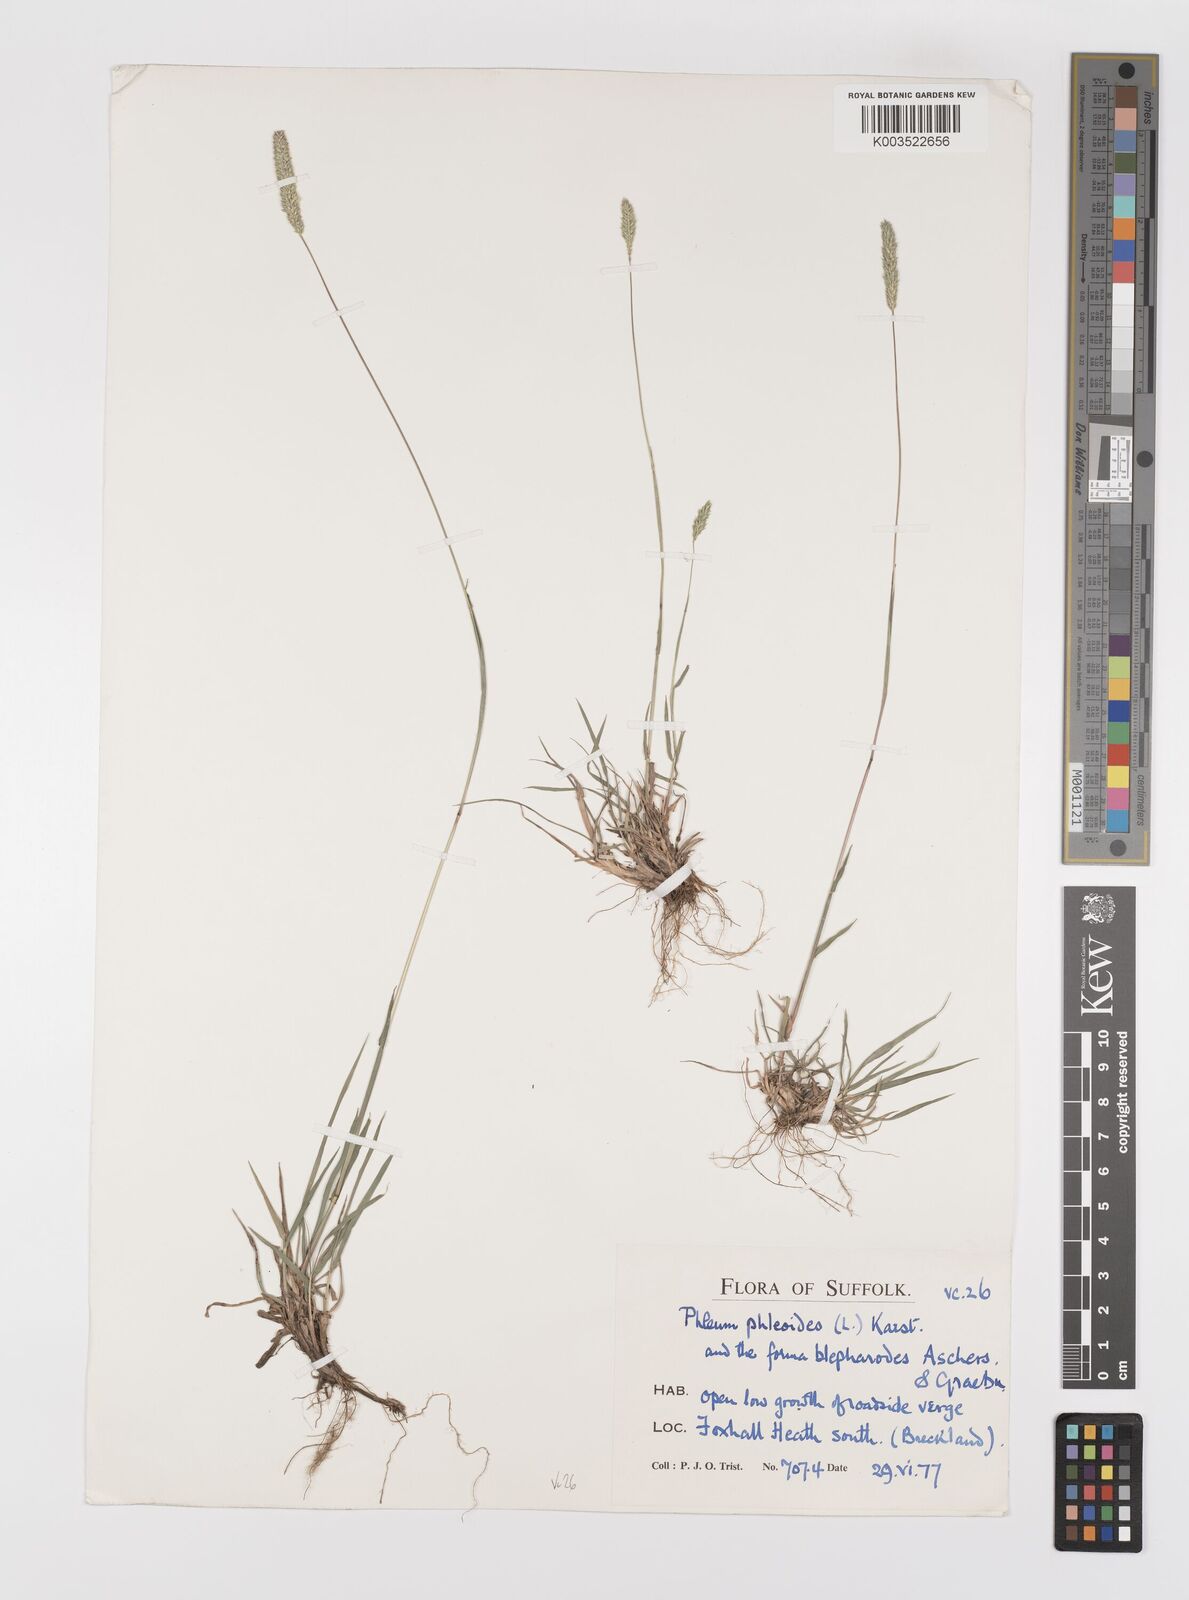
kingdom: Plantae
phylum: Tracheophyta
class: Liliopsida
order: Poales
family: Poaceae
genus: Phleum
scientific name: Phleum phleoides
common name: Purple-stem cat's-tail
